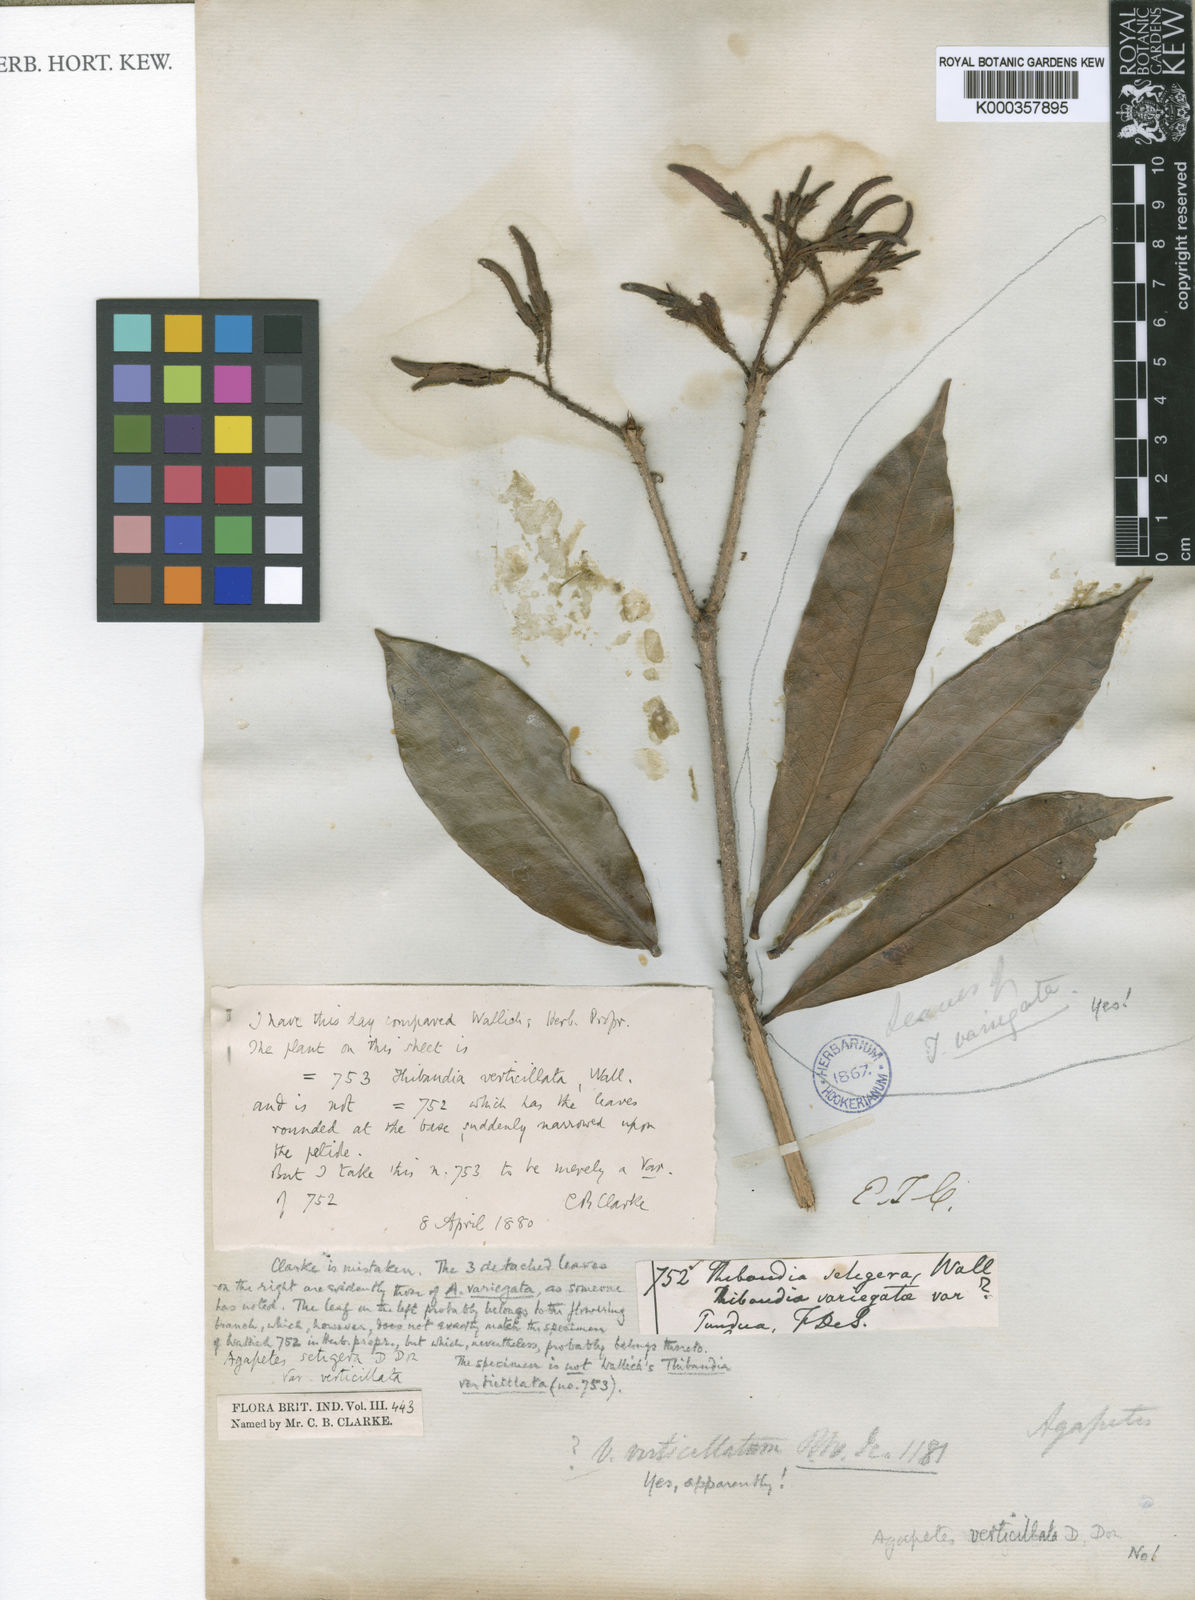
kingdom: Plantae
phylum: Tracheophyta
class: Magnoliopsida
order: Ericales
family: Ericaceae
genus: Agapetes
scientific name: Agapetes setigera
